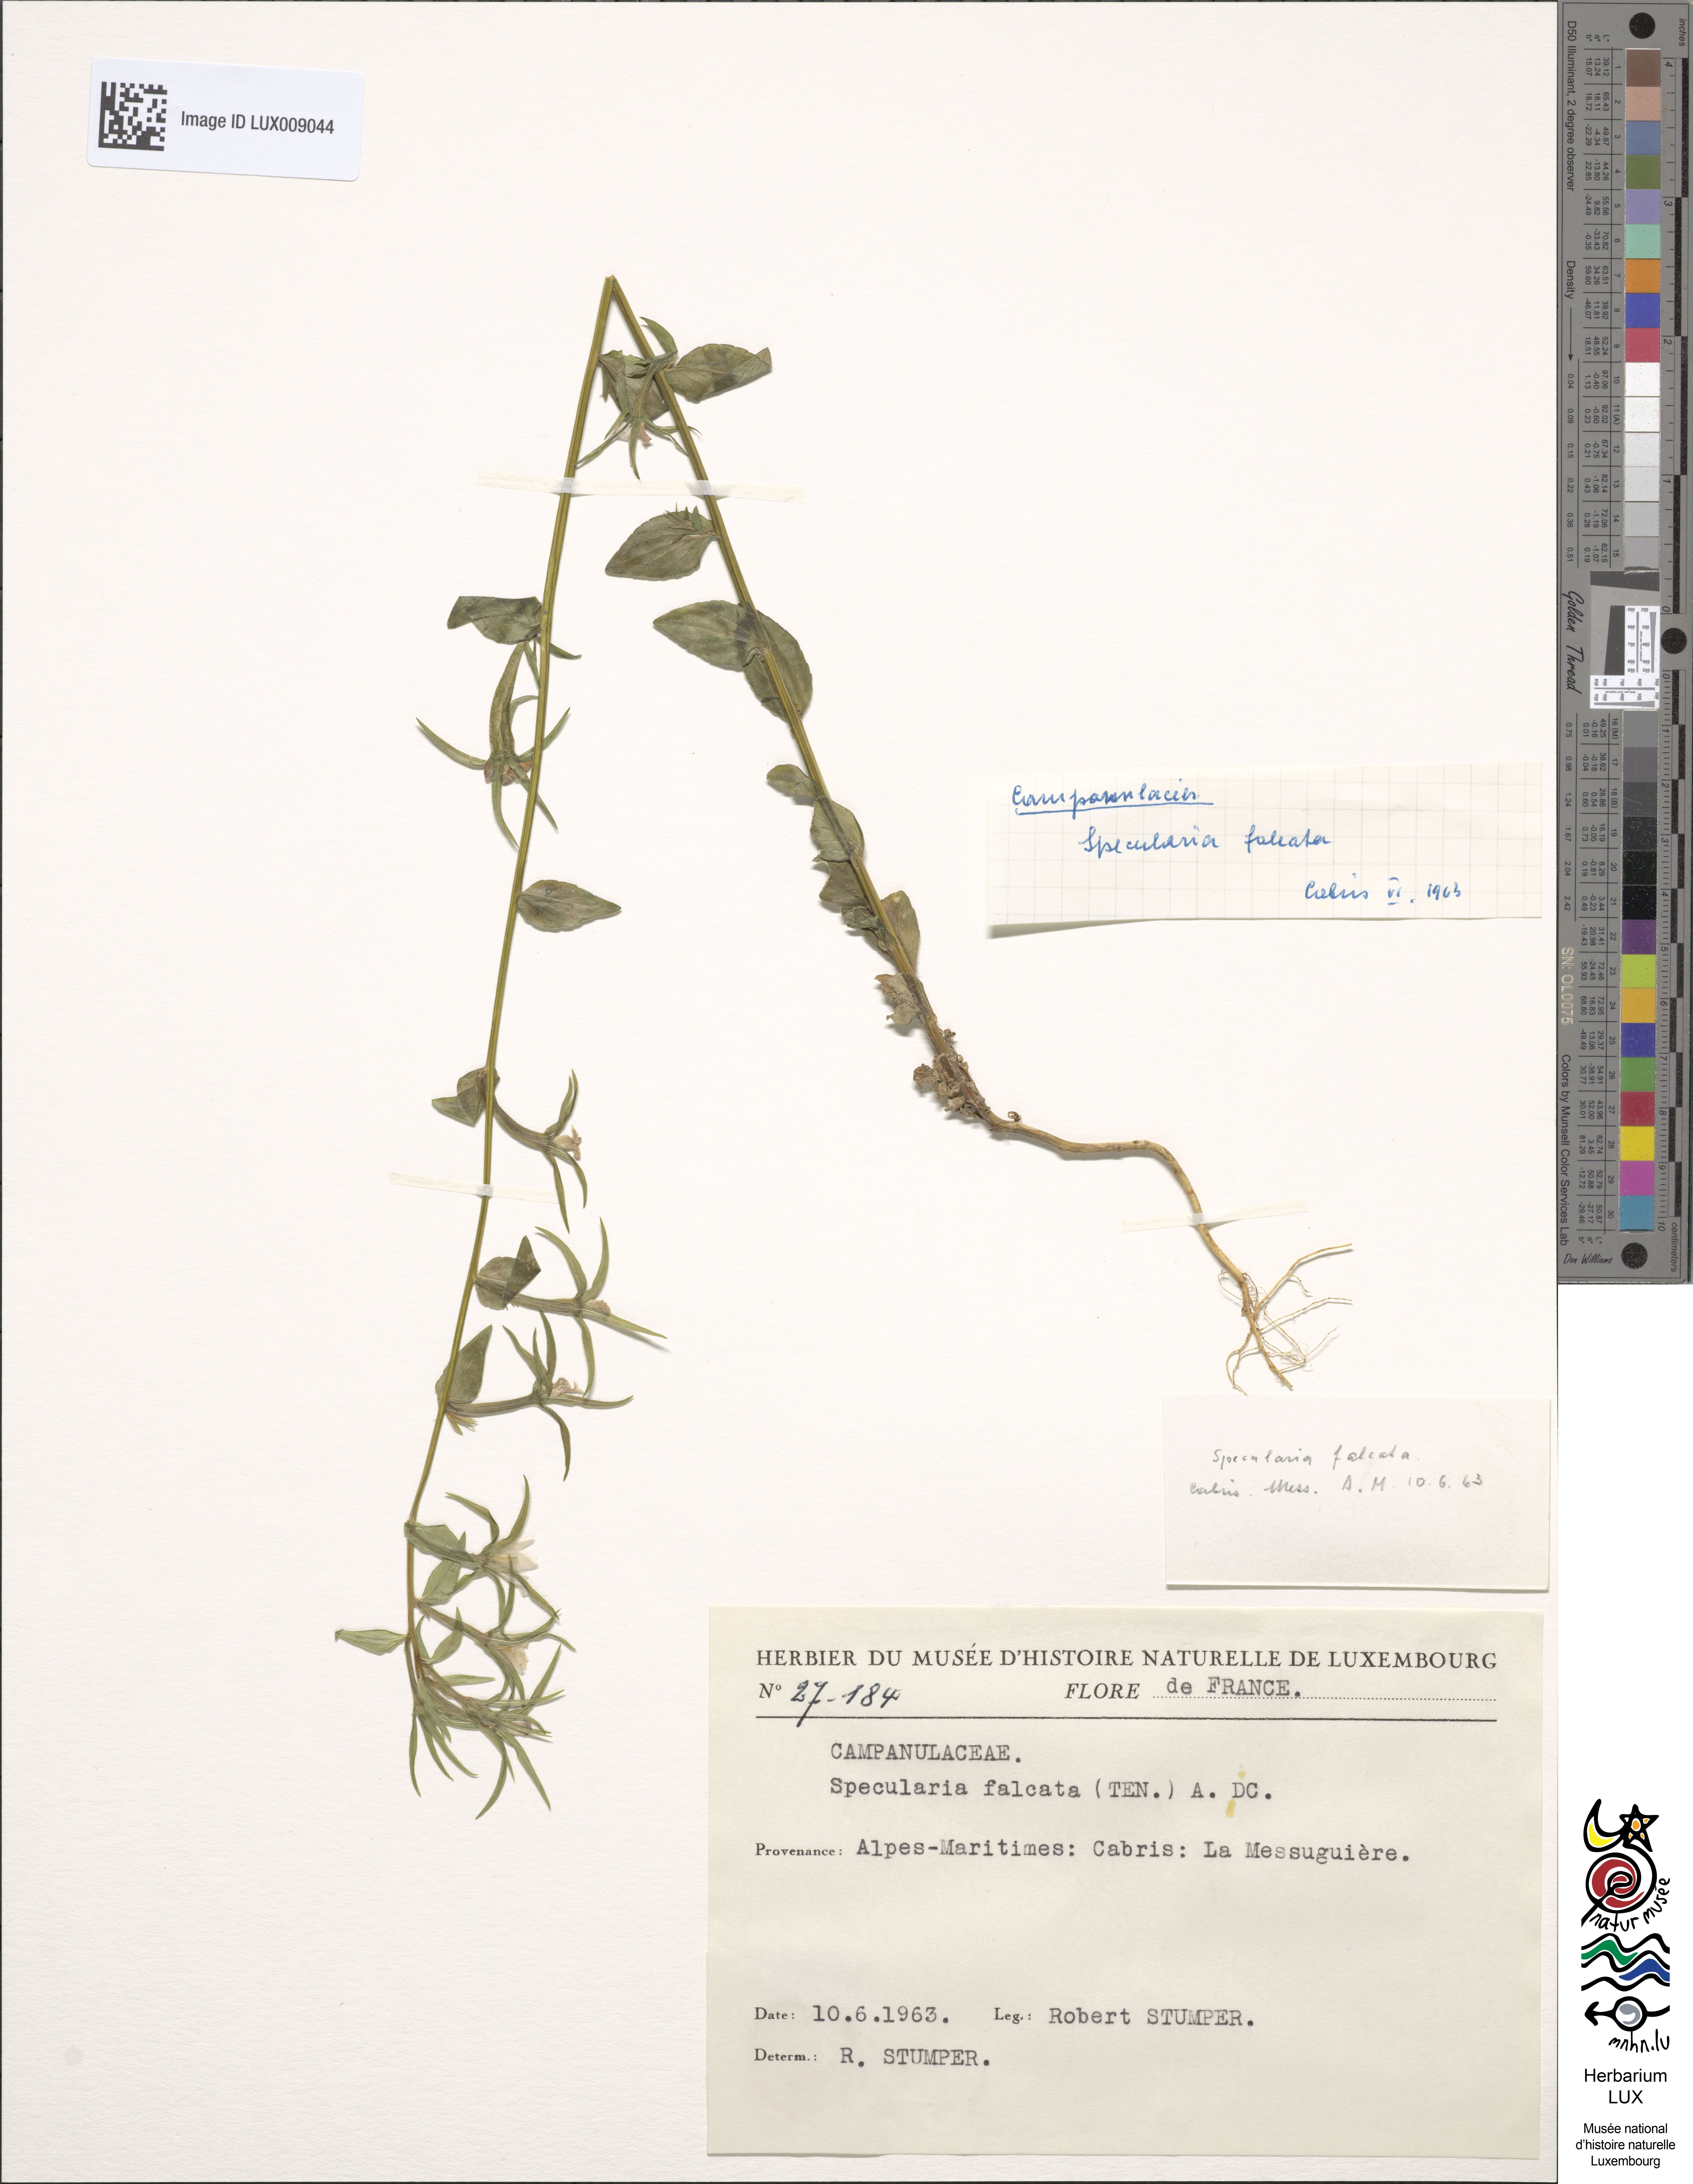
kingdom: Plantae
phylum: Tracheophyta
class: Magnoliopsida
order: Asterales
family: Campanulaceae
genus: Legousia
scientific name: Legousia falcata
